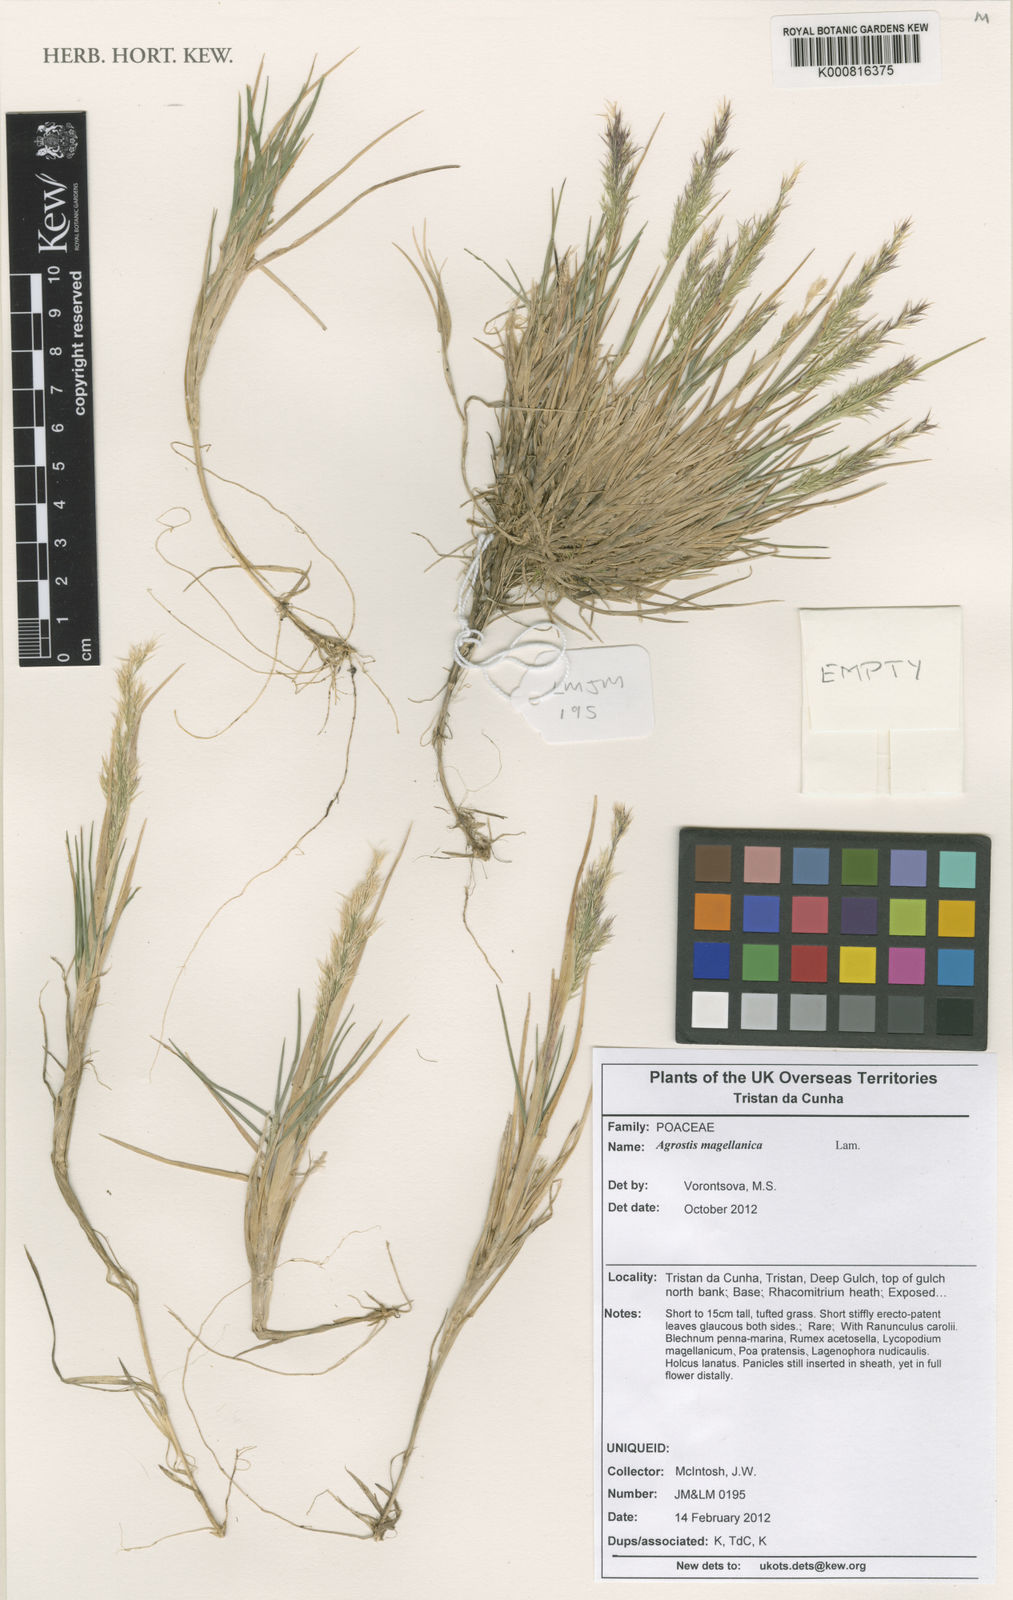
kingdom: Plantae
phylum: Tracheophyta
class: Liliopsida
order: Poales
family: Poaceae
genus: Polypogon
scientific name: Polypogon magellanicus
